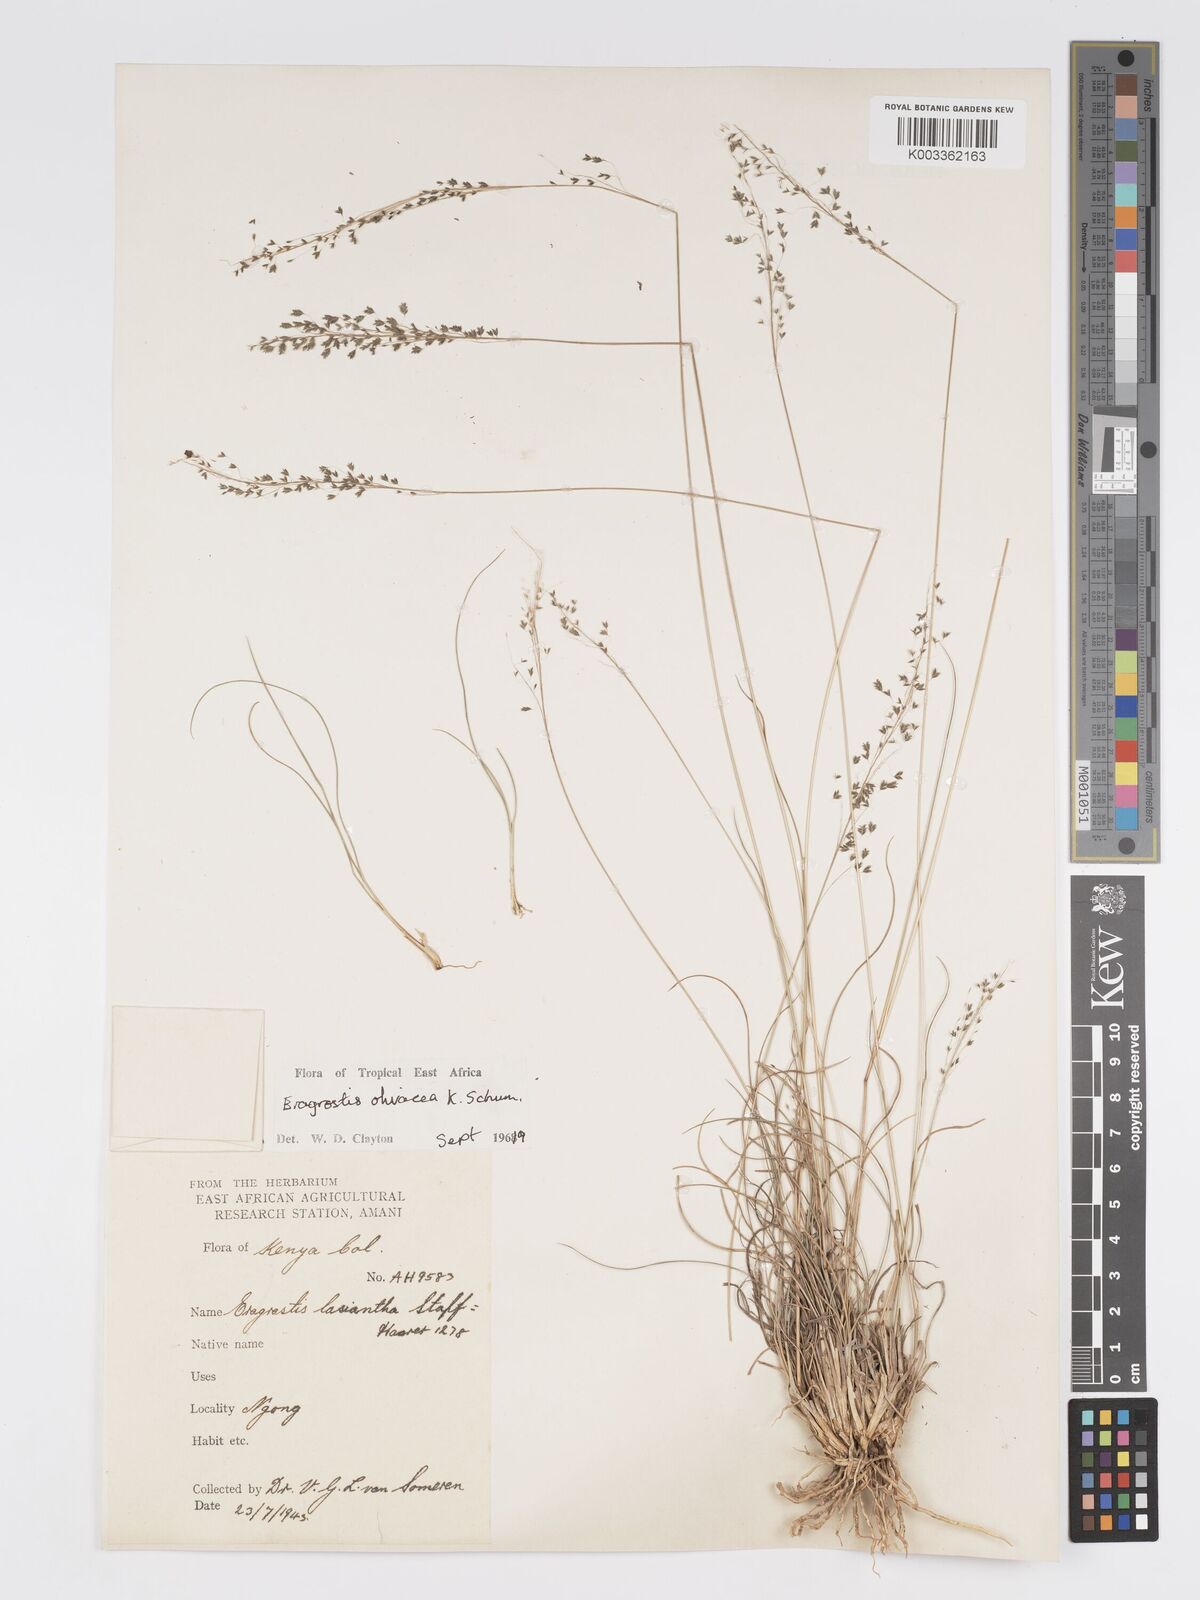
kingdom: Plantae
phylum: Tracheophyta
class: Liliopsida
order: Poales
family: Poaceae
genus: Eragrostis
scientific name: Eragrostis olivacea
